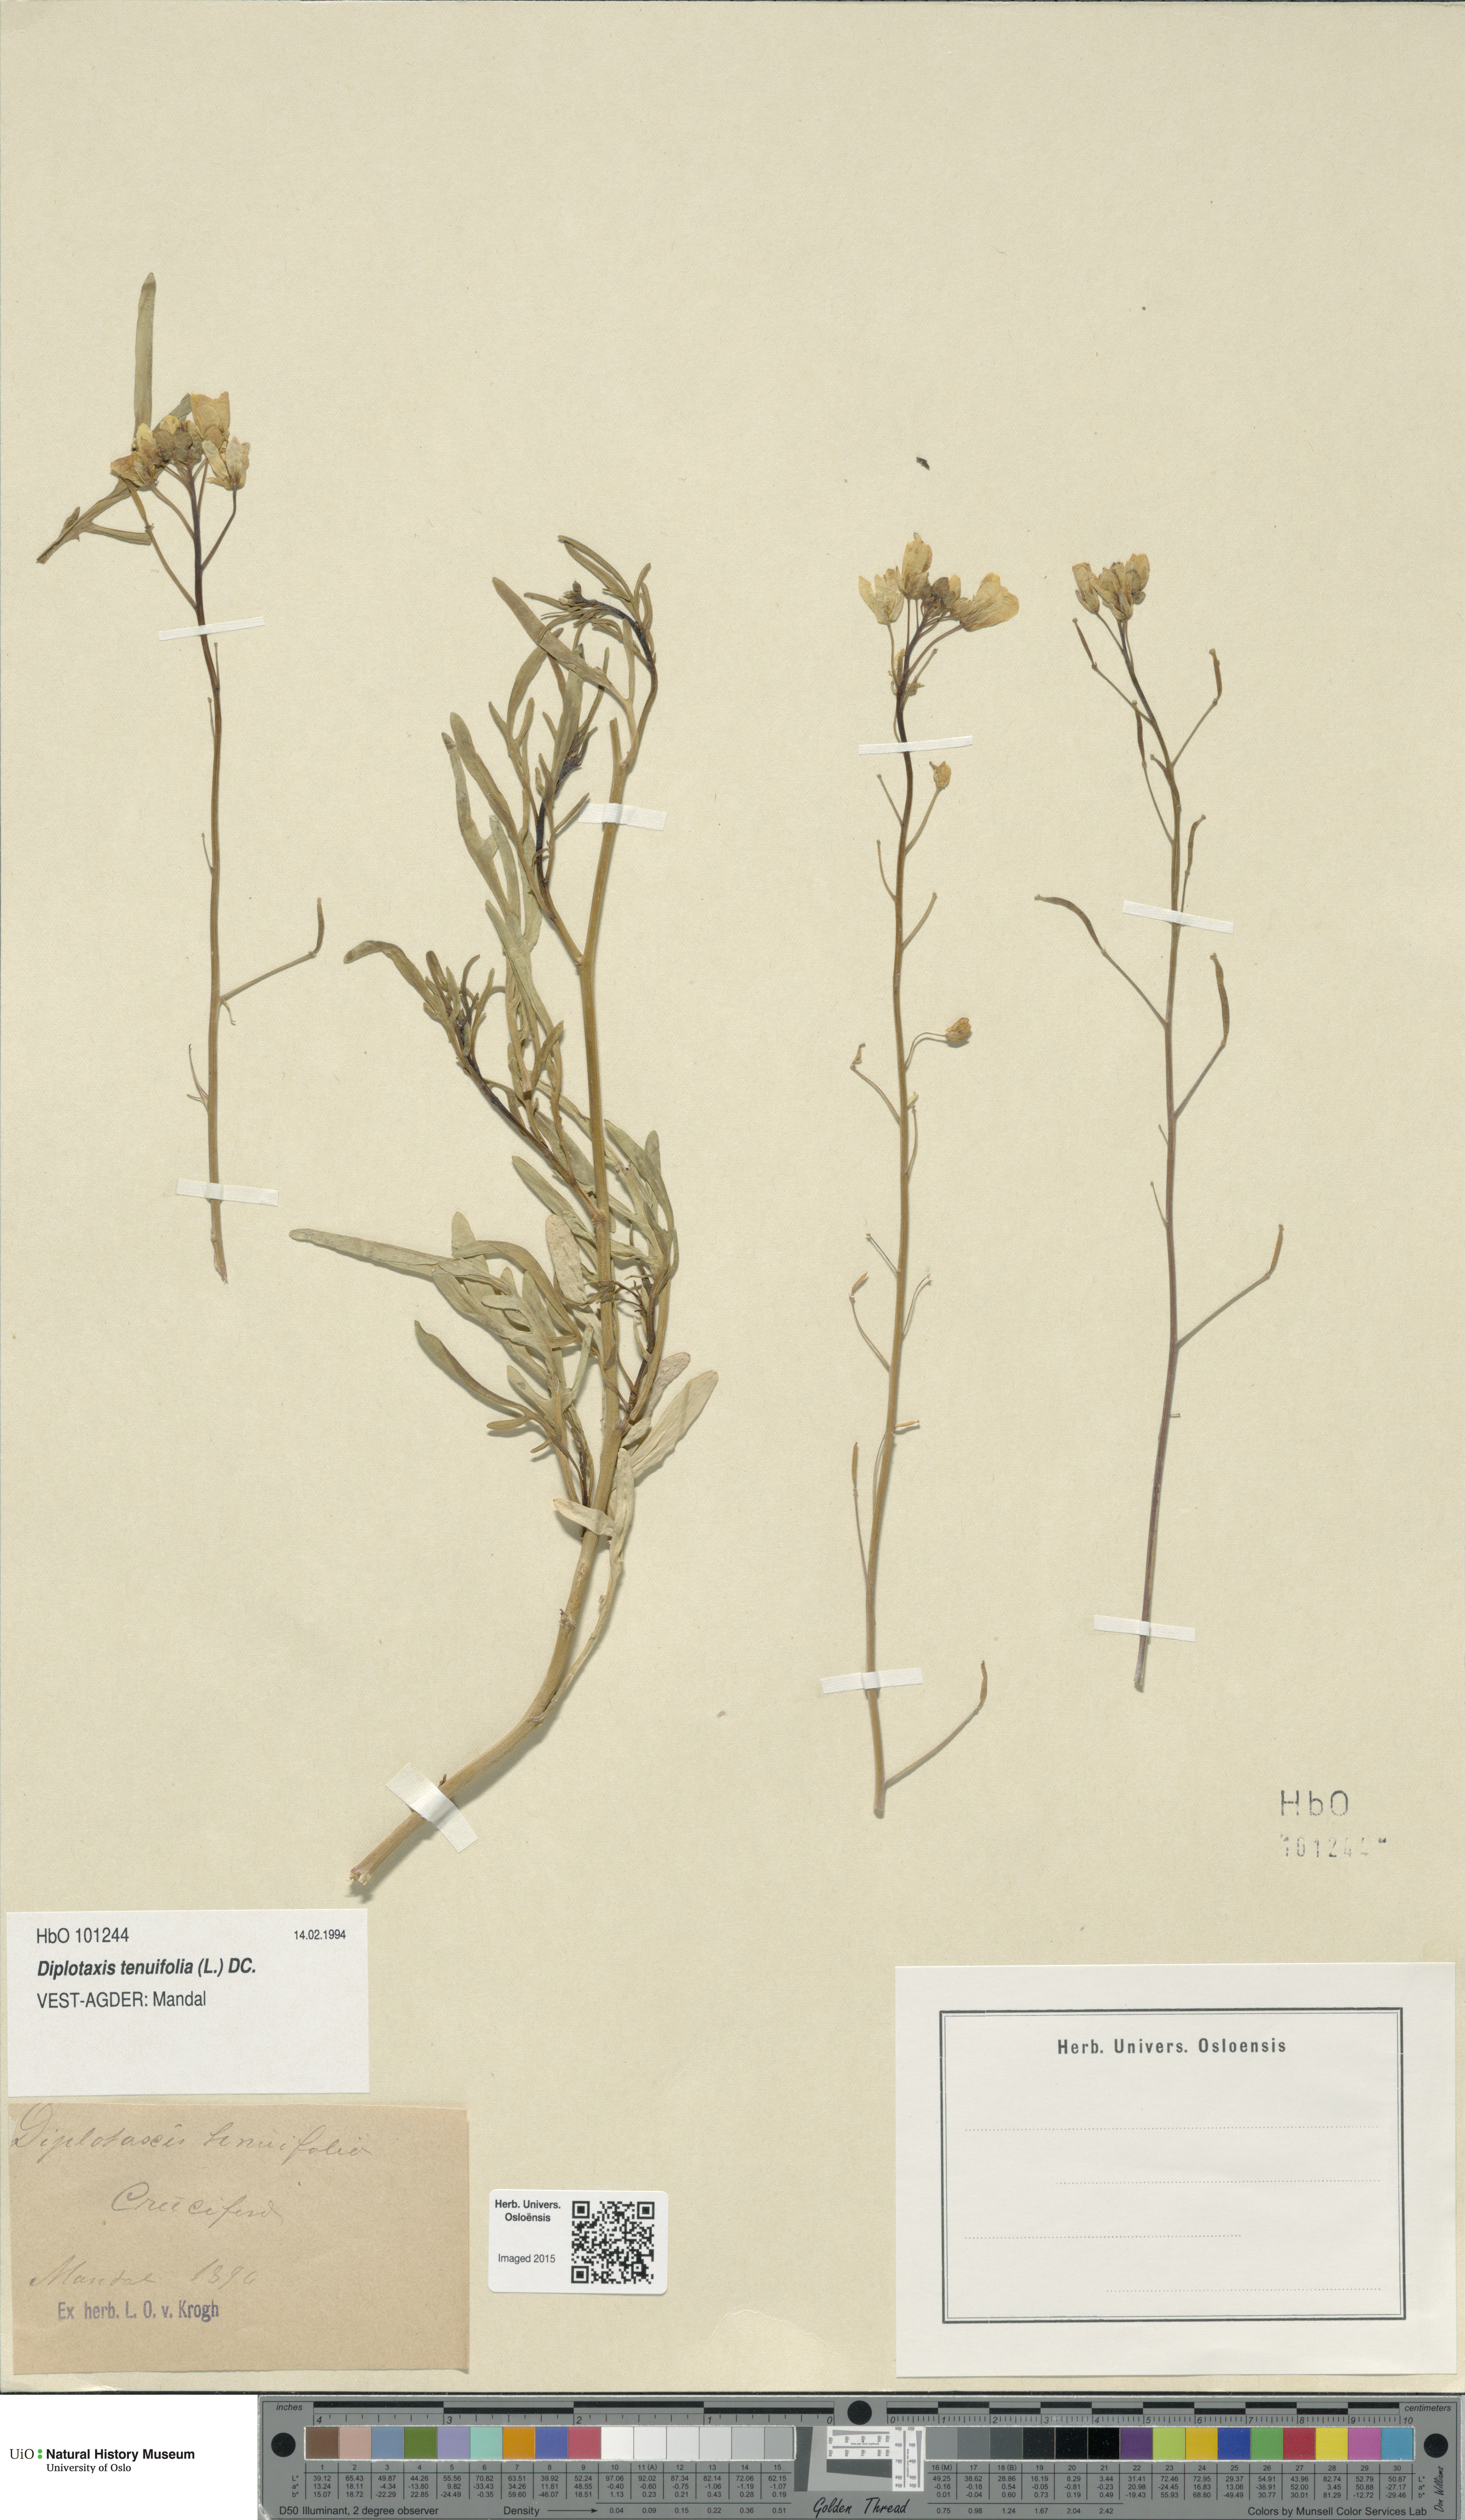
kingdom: Plantae
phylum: Tracheophyta
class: Magnoliopsida
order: Brassicales
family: Brassicaceae
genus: Diplotaxis
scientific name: Diplotaxis tenuifolia
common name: Perennial wall-rocket
